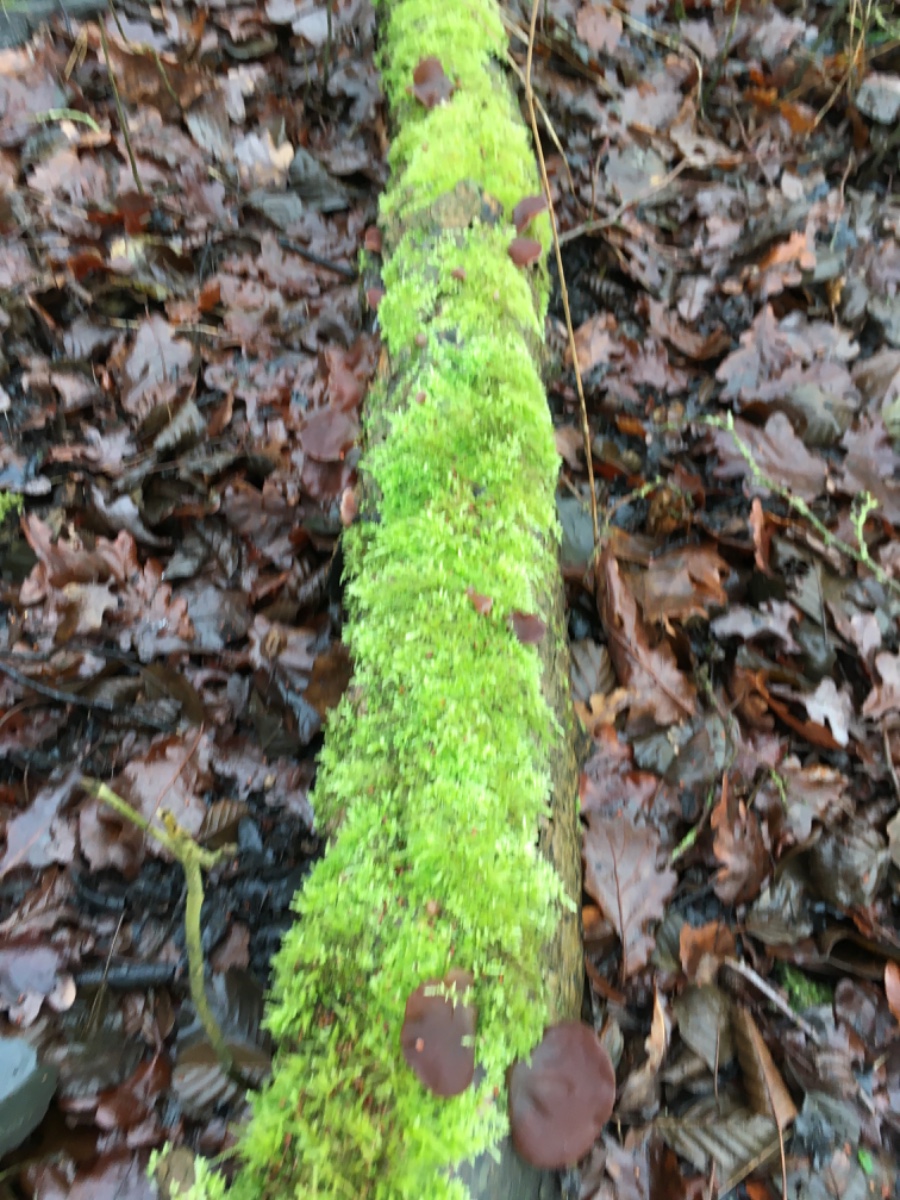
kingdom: Fungi
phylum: Basidiomycota
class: Agaricomycetes
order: Auriculariales
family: Auriculariaceae
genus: Auricularia
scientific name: Auricularia auricula-judae
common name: almindelig judasøre
